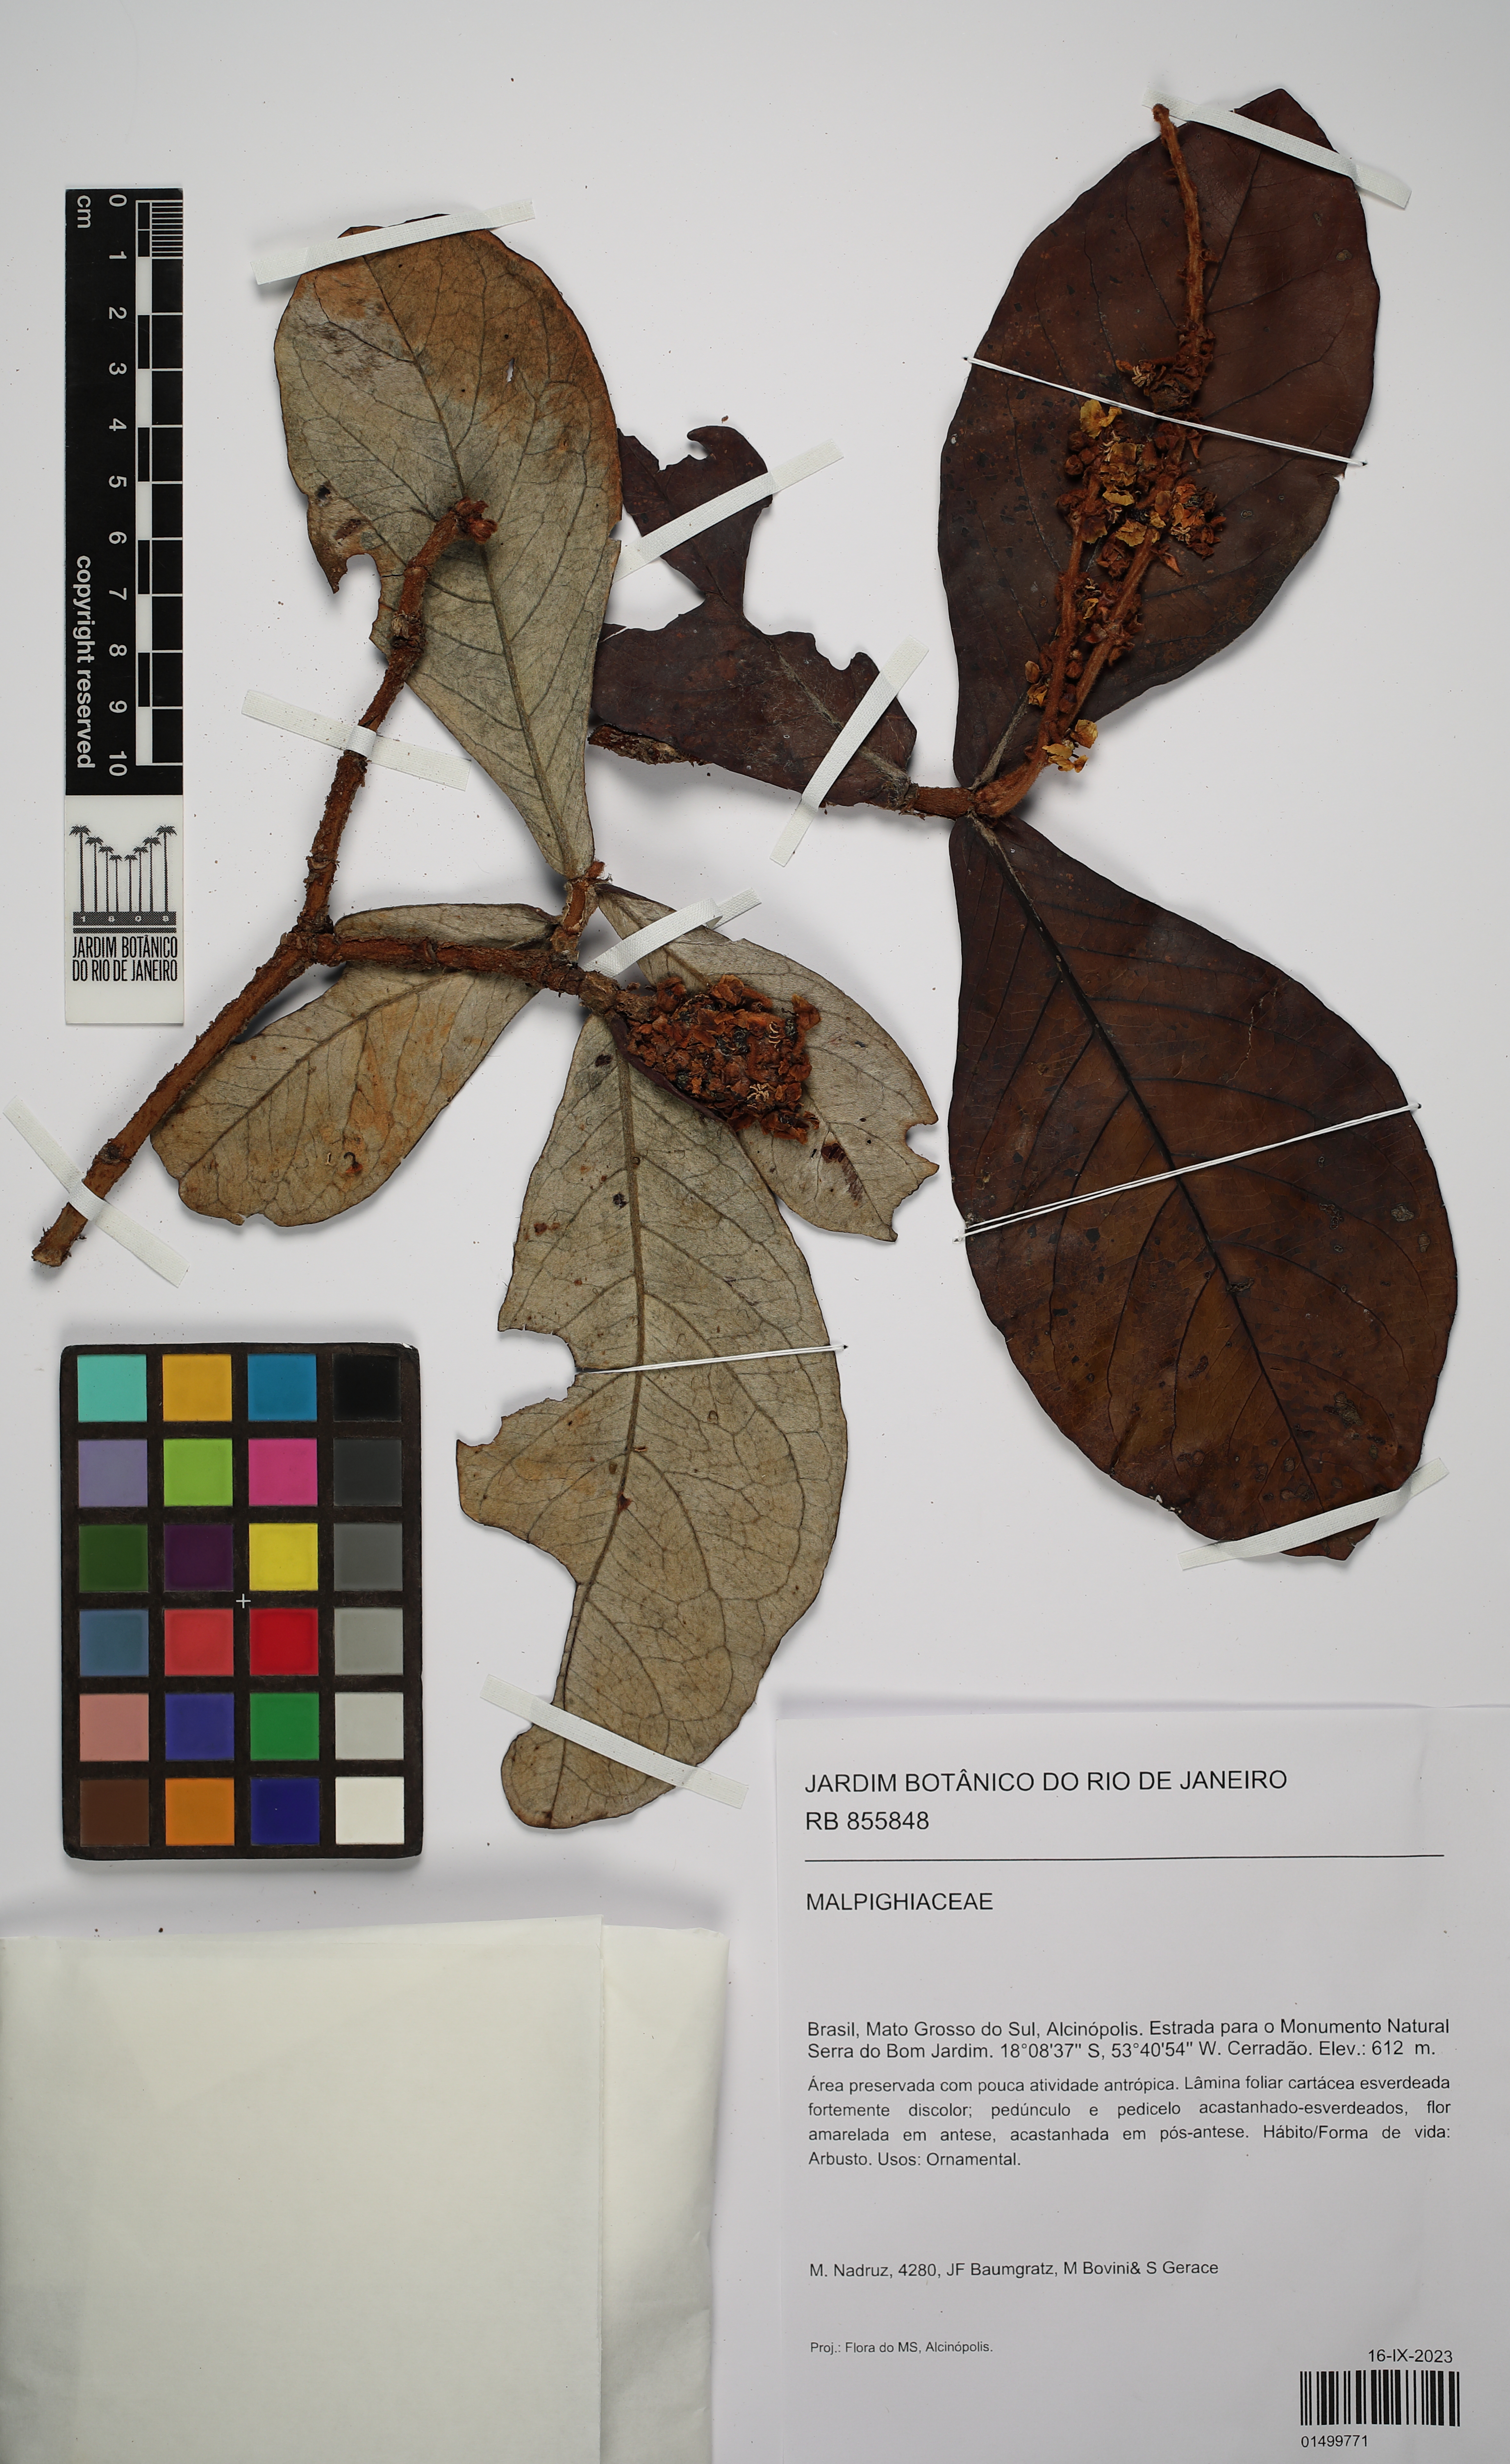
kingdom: Plantae
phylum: Tracheophyta
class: Magnoliopsida
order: Malpighiales
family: Malpighiaceae
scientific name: Malpighiaceae
